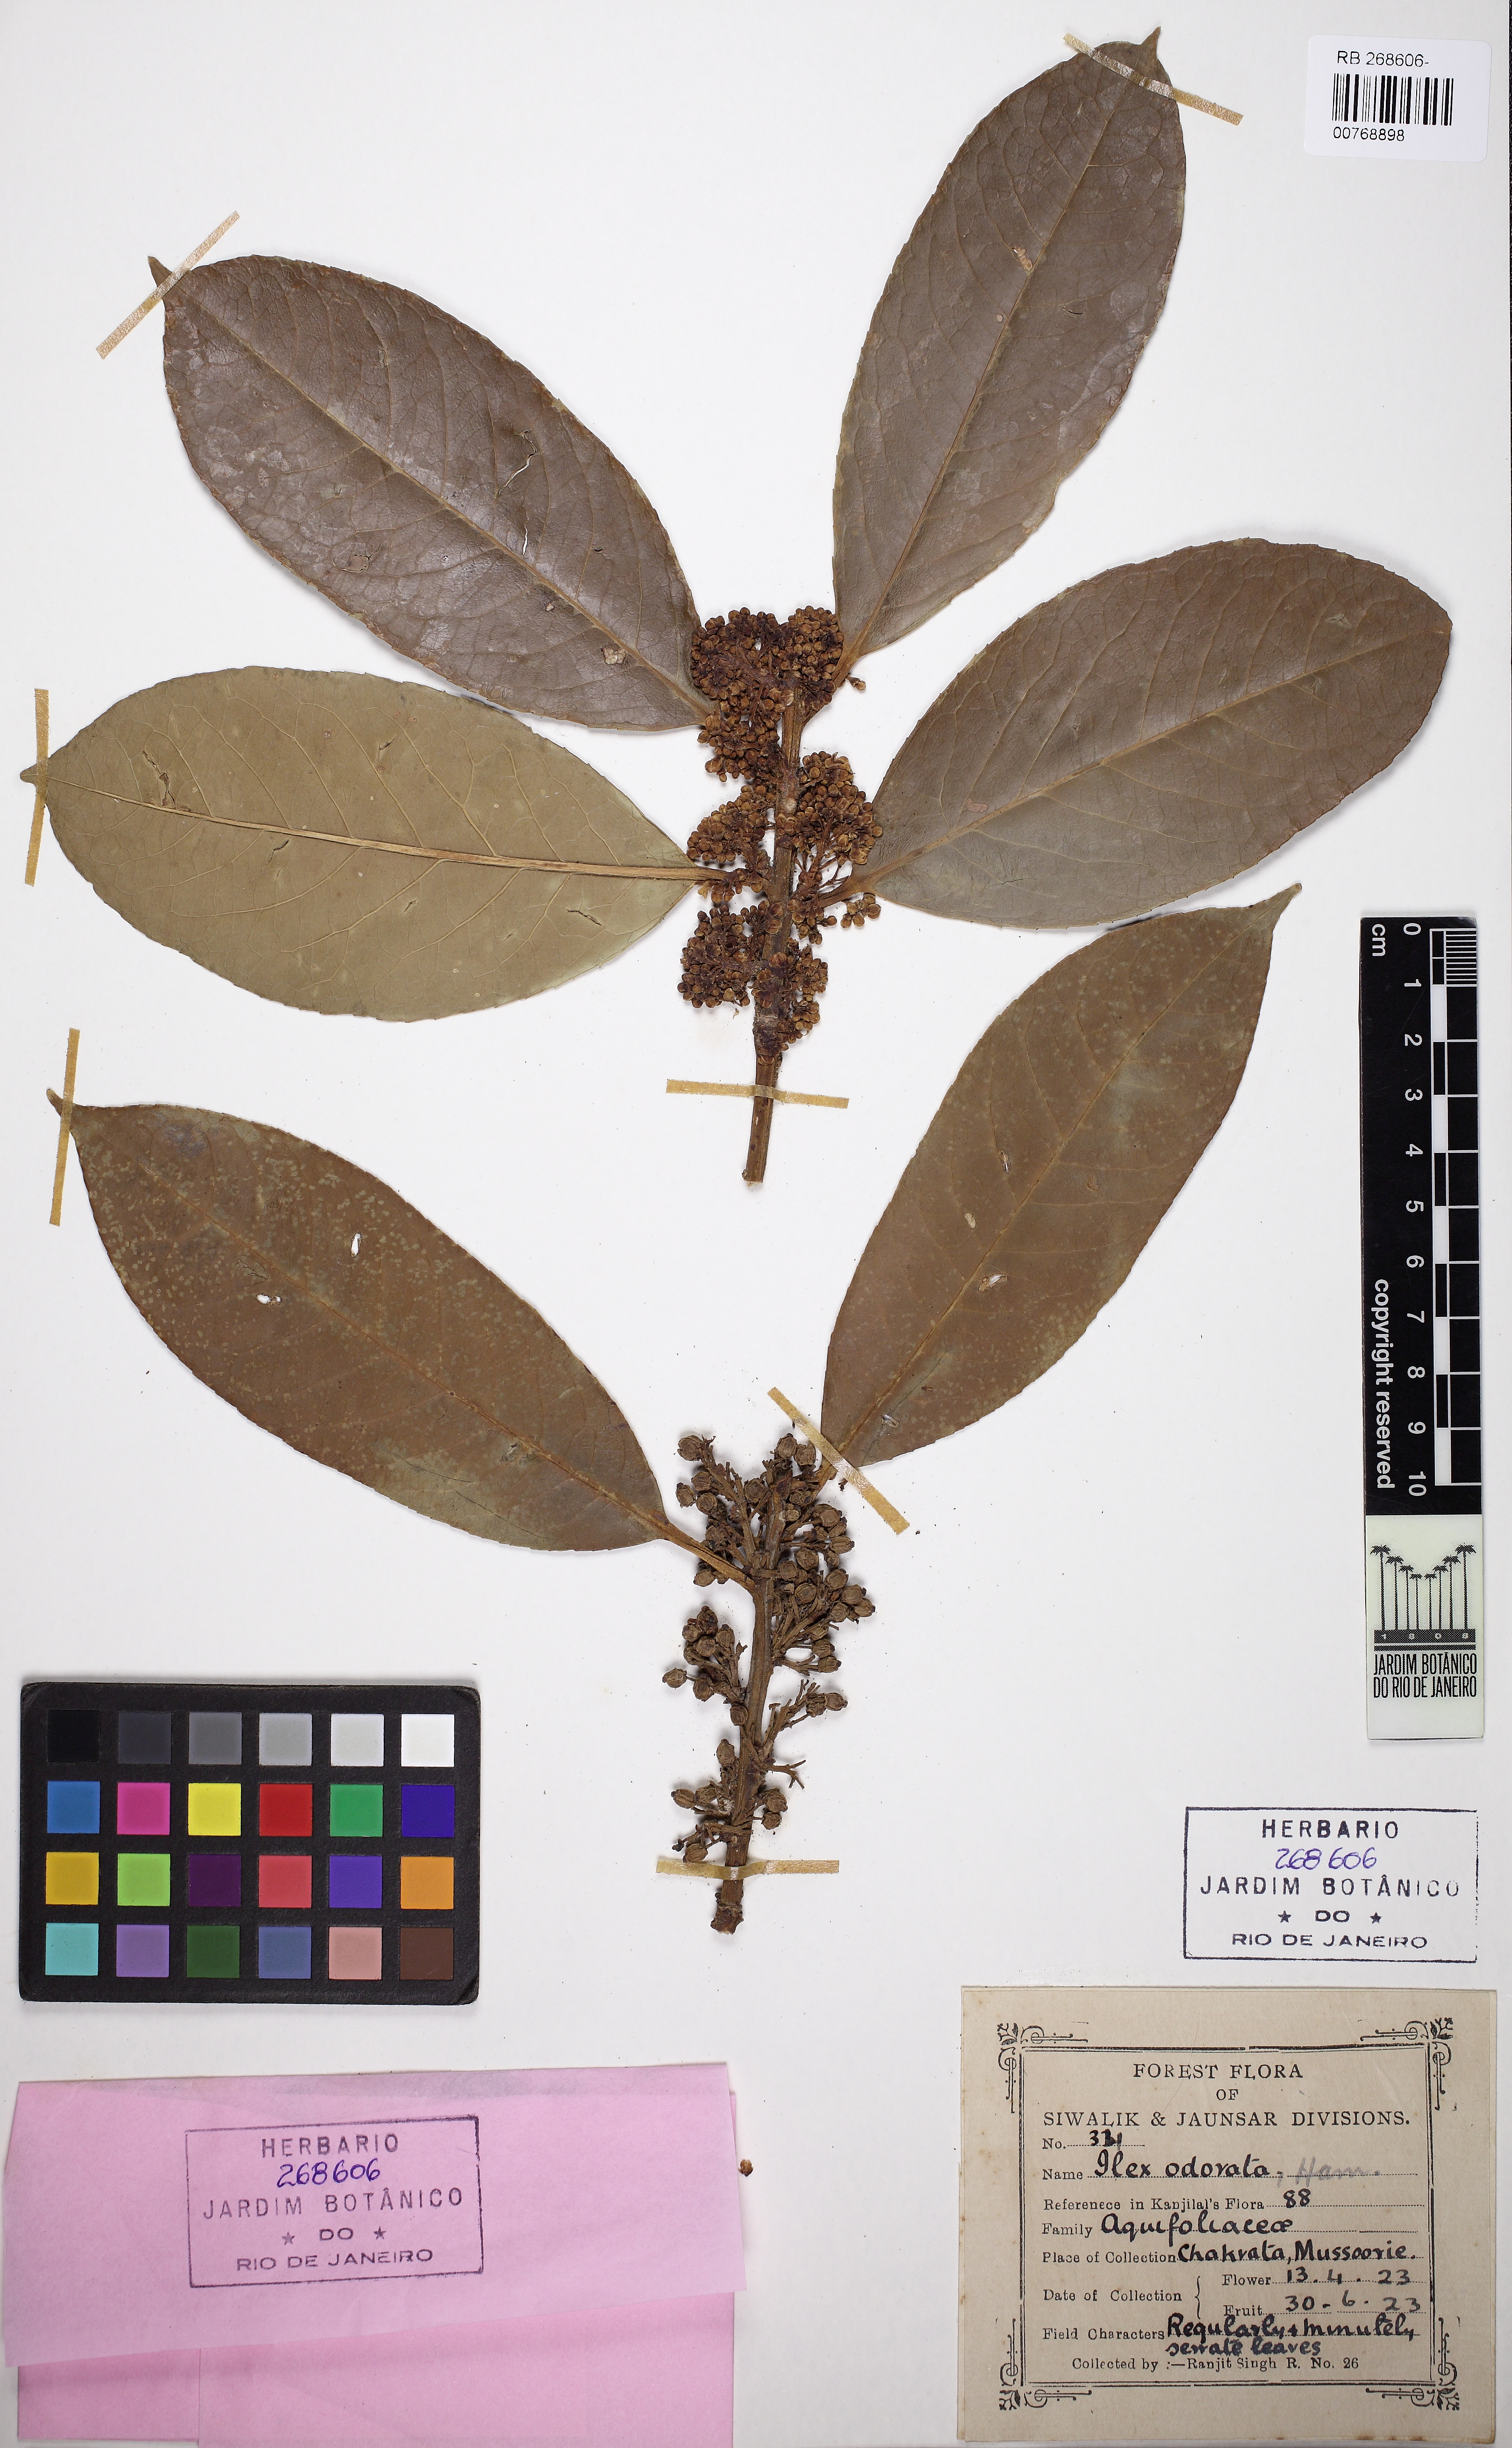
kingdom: Plantae
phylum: Tracheophyta
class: Magnoliopsida
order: Aquifoliales
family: Aquifoliaceae
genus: Ilex
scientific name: Ilex odorata
